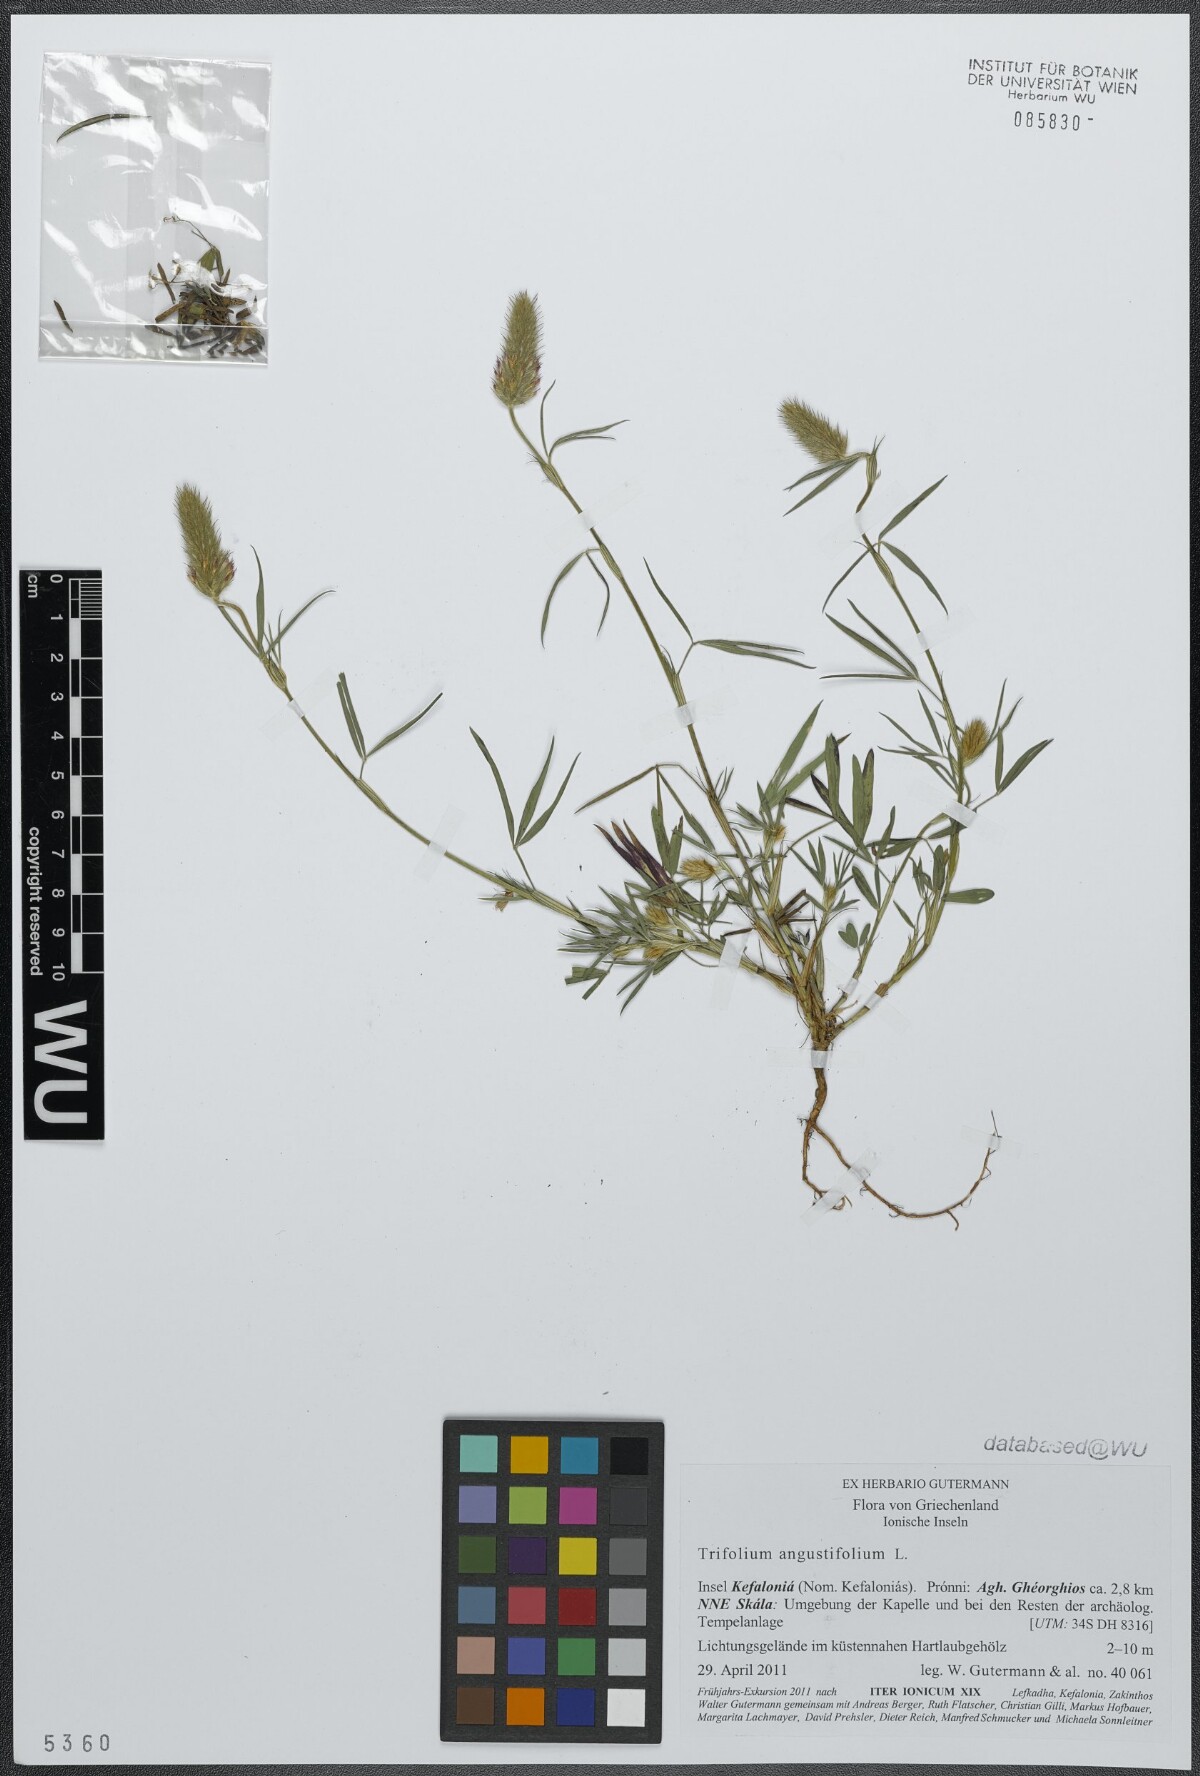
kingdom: Plantae
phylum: Tracheophyta
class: Magnoliopsida
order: Fabales
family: Fabaceae
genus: Trifolium
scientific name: Trifolium angustifolium
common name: Narrow clover
